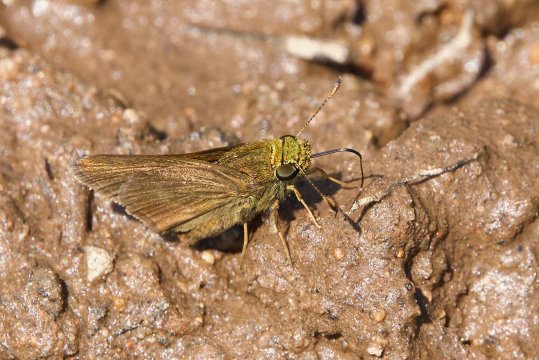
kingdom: Animalia
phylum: Arthropoda
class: Insecta
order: Lepidoptera
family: Hesperiidae
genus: Euphyes
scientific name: Euphyes vestris
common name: Dun Skipper
